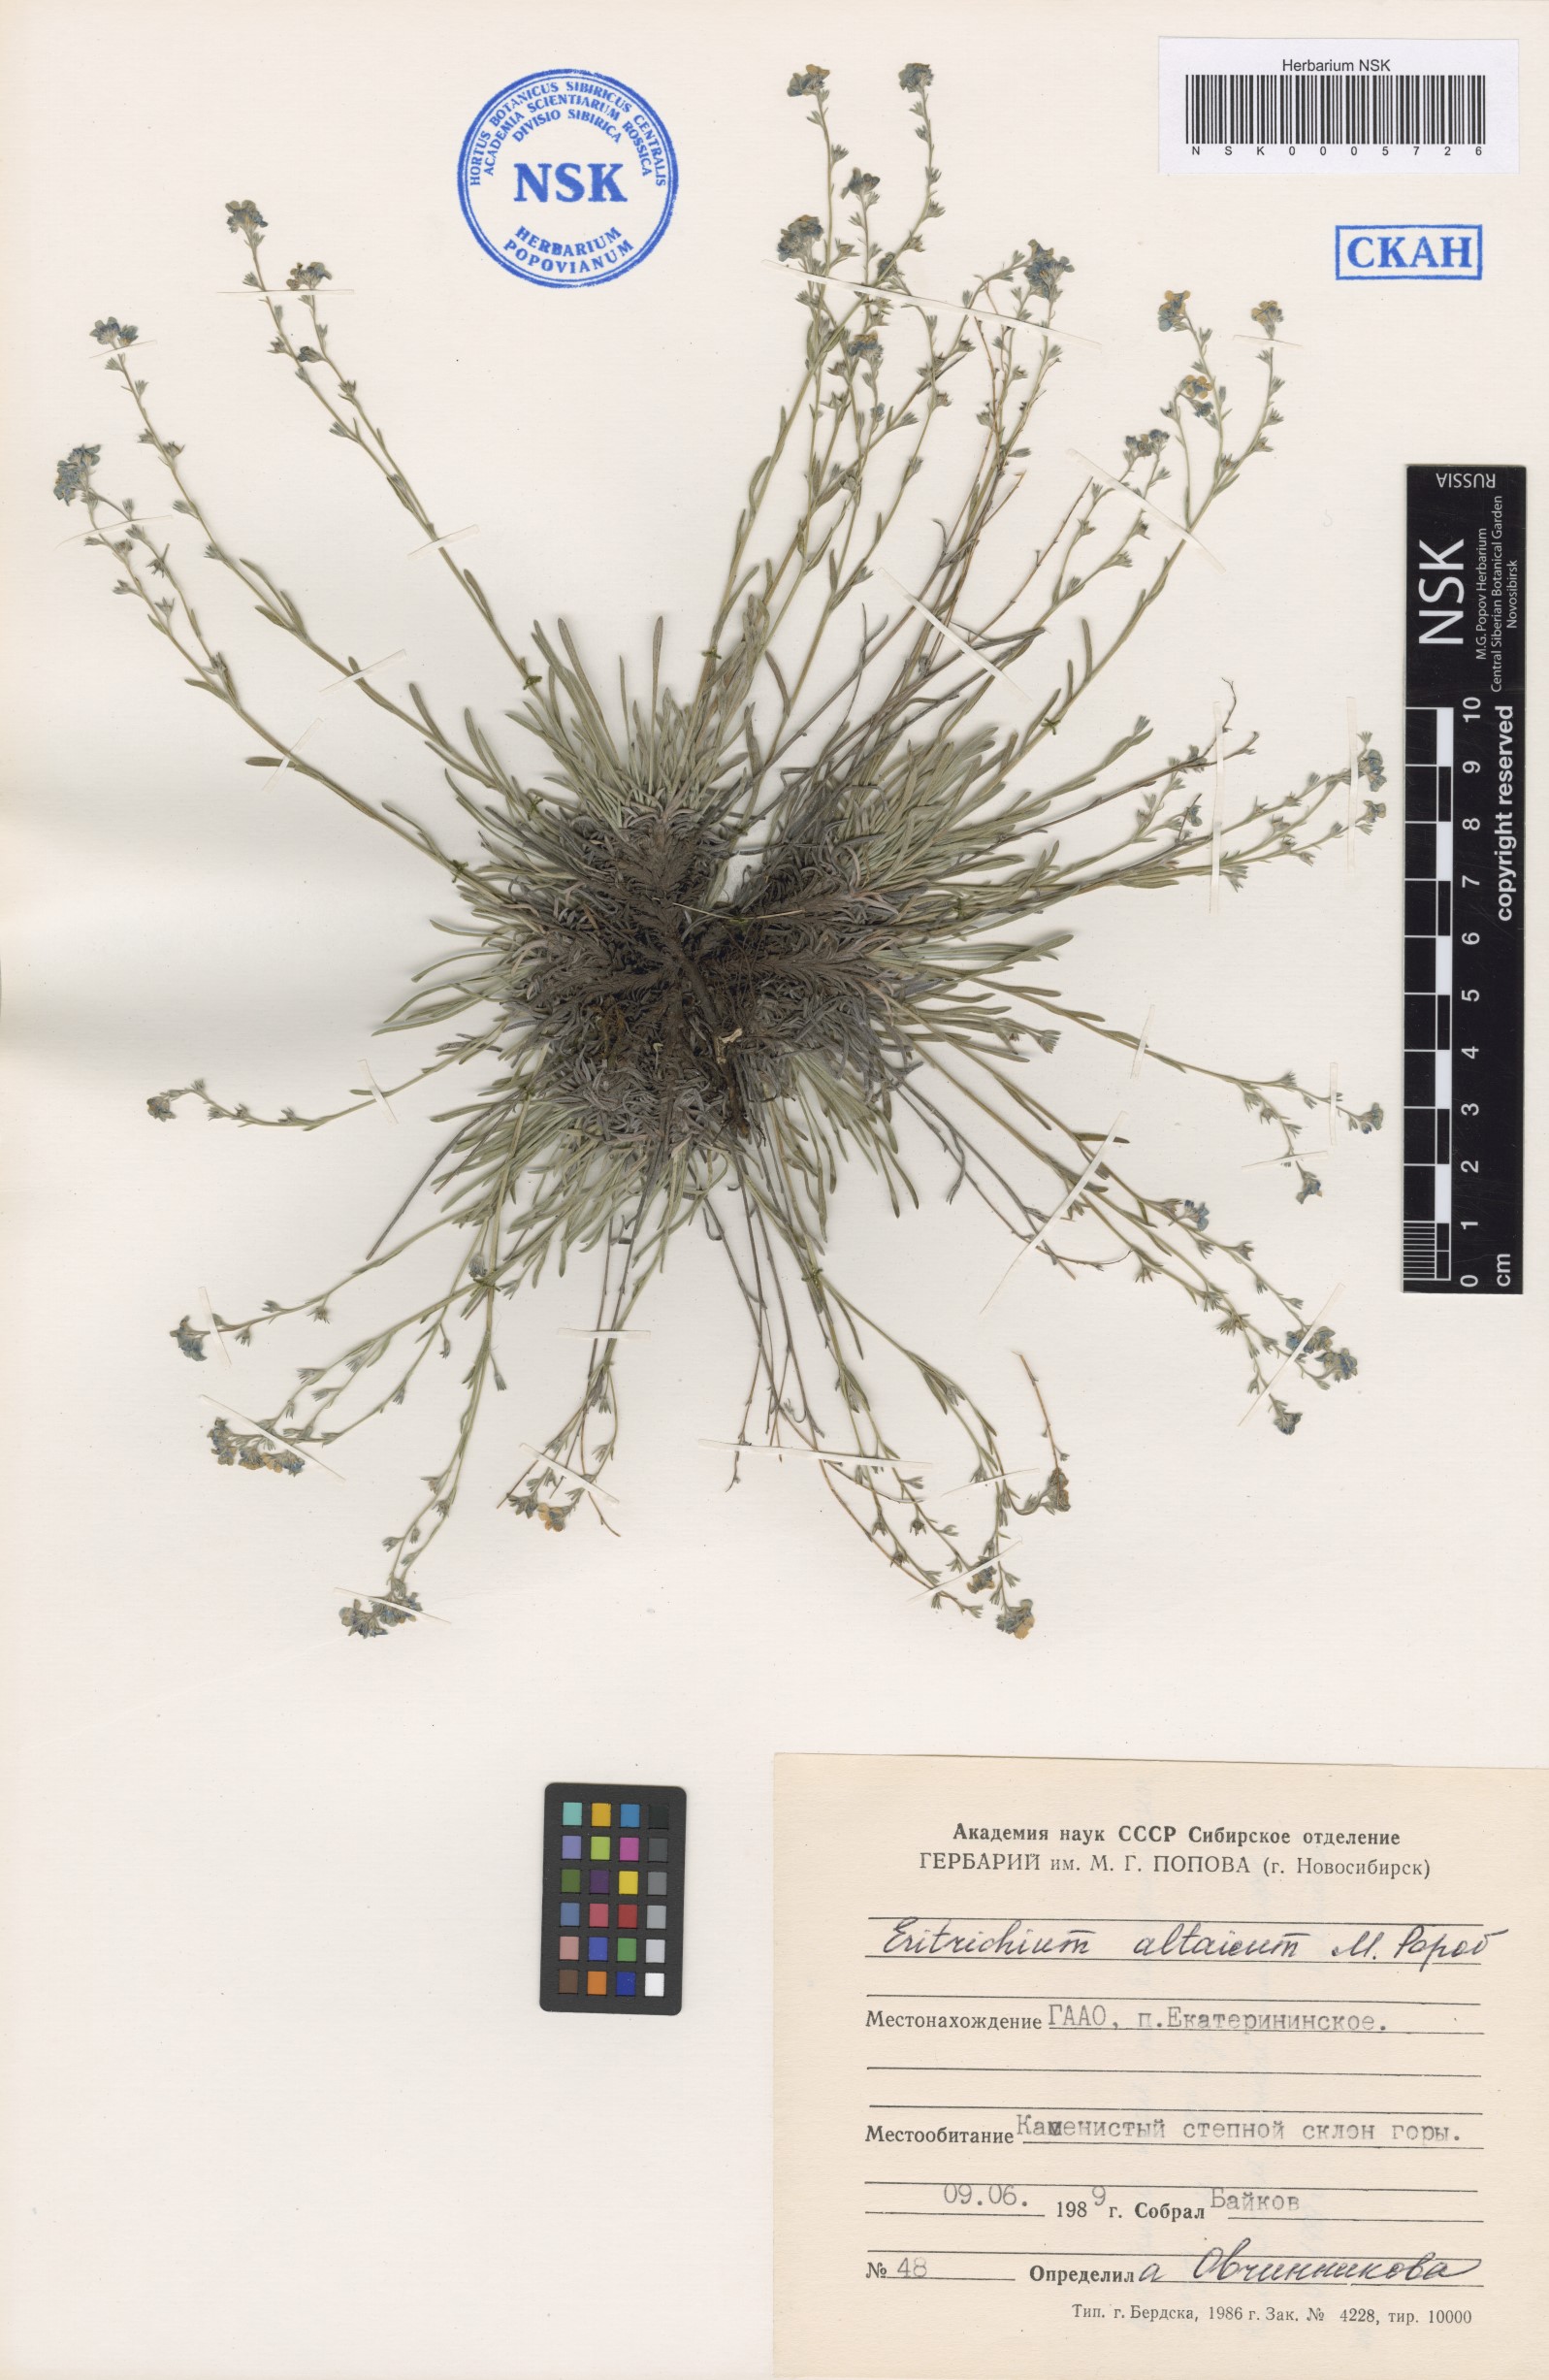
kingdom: Plantae
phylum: Tracheophyta
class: Magnoliopsida
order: Boraginales
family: Boraginaceae
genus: Eritrichium
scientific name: Eritrichium pauciflorum
